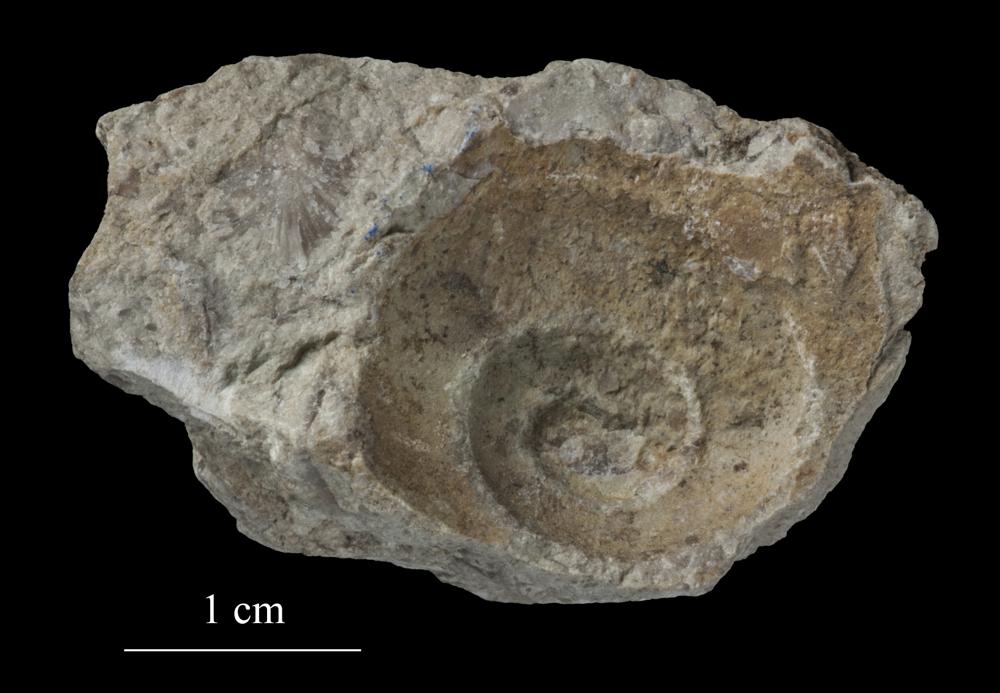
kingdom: Animalia
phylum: Mollusca
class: Gastropoda
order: Pleurotomariida
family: Pleurotomariidae
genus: Pleurotomaria
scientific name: Pleurotomaria
